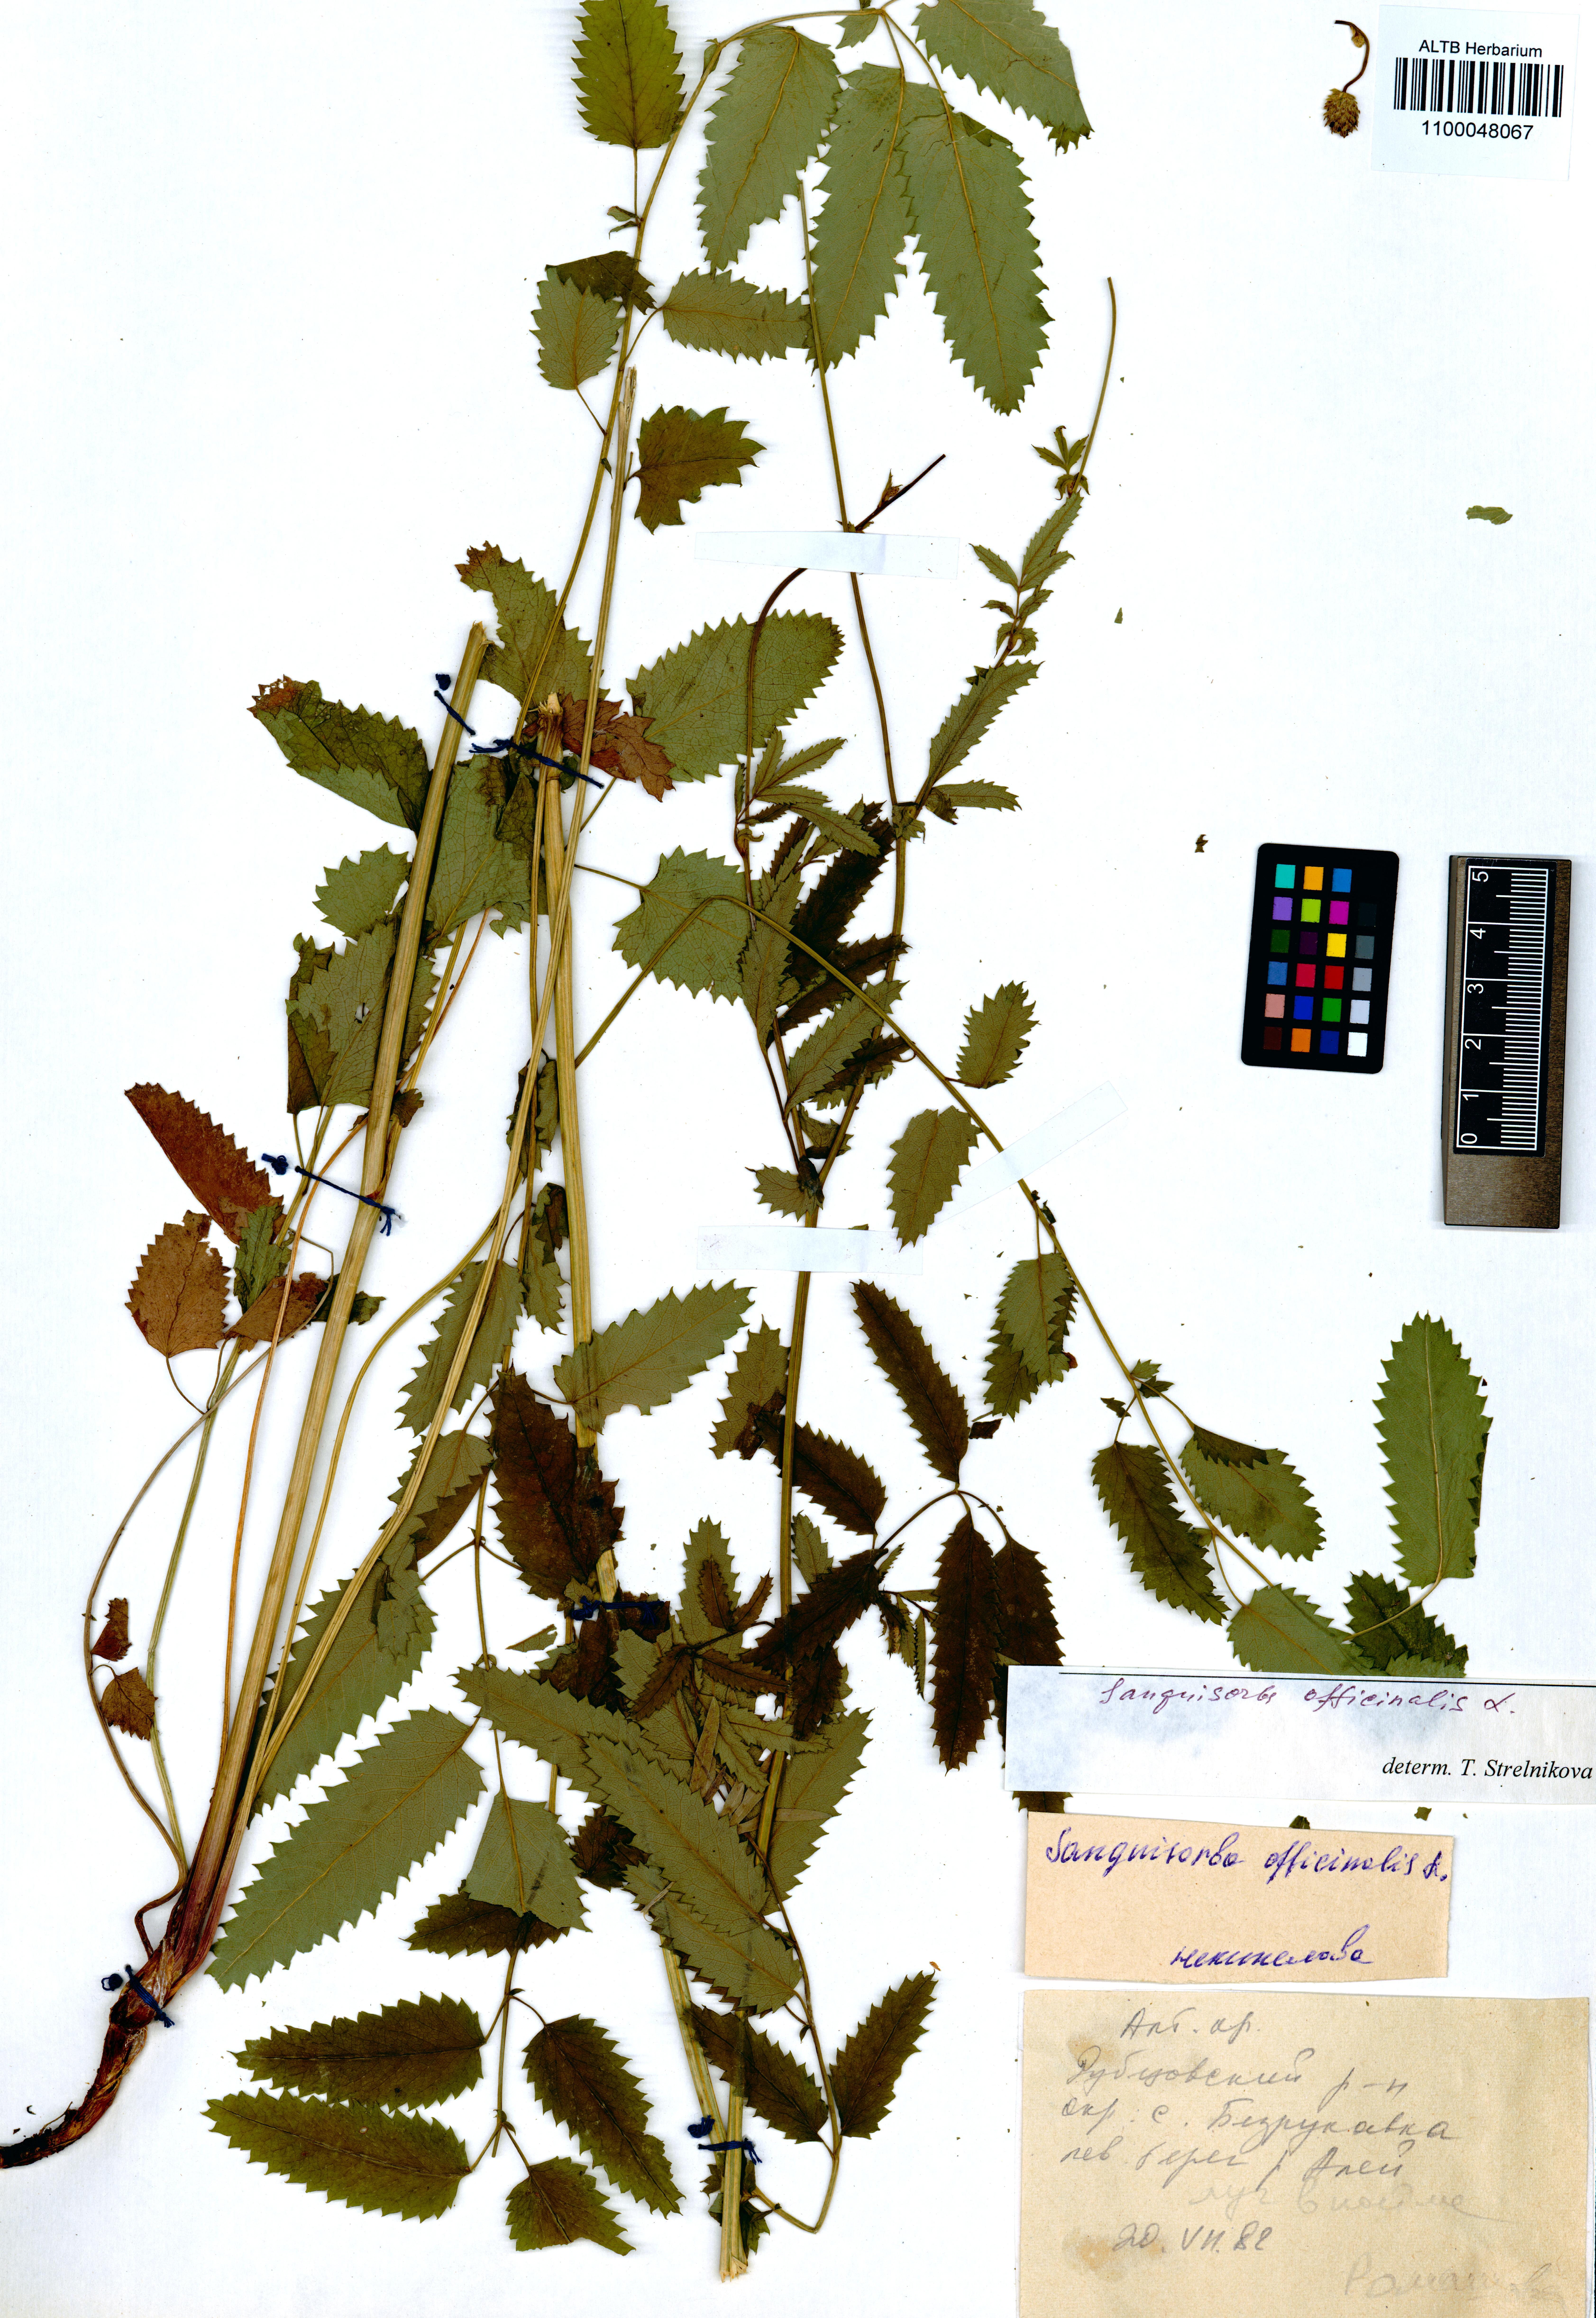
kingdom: Plantae
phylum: Tracheophyta
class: Magnoliopsida
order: Rosales
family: Rosaceae
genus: Sanguisorba
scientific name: Sanguisorba officinalis
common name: Great burnet
